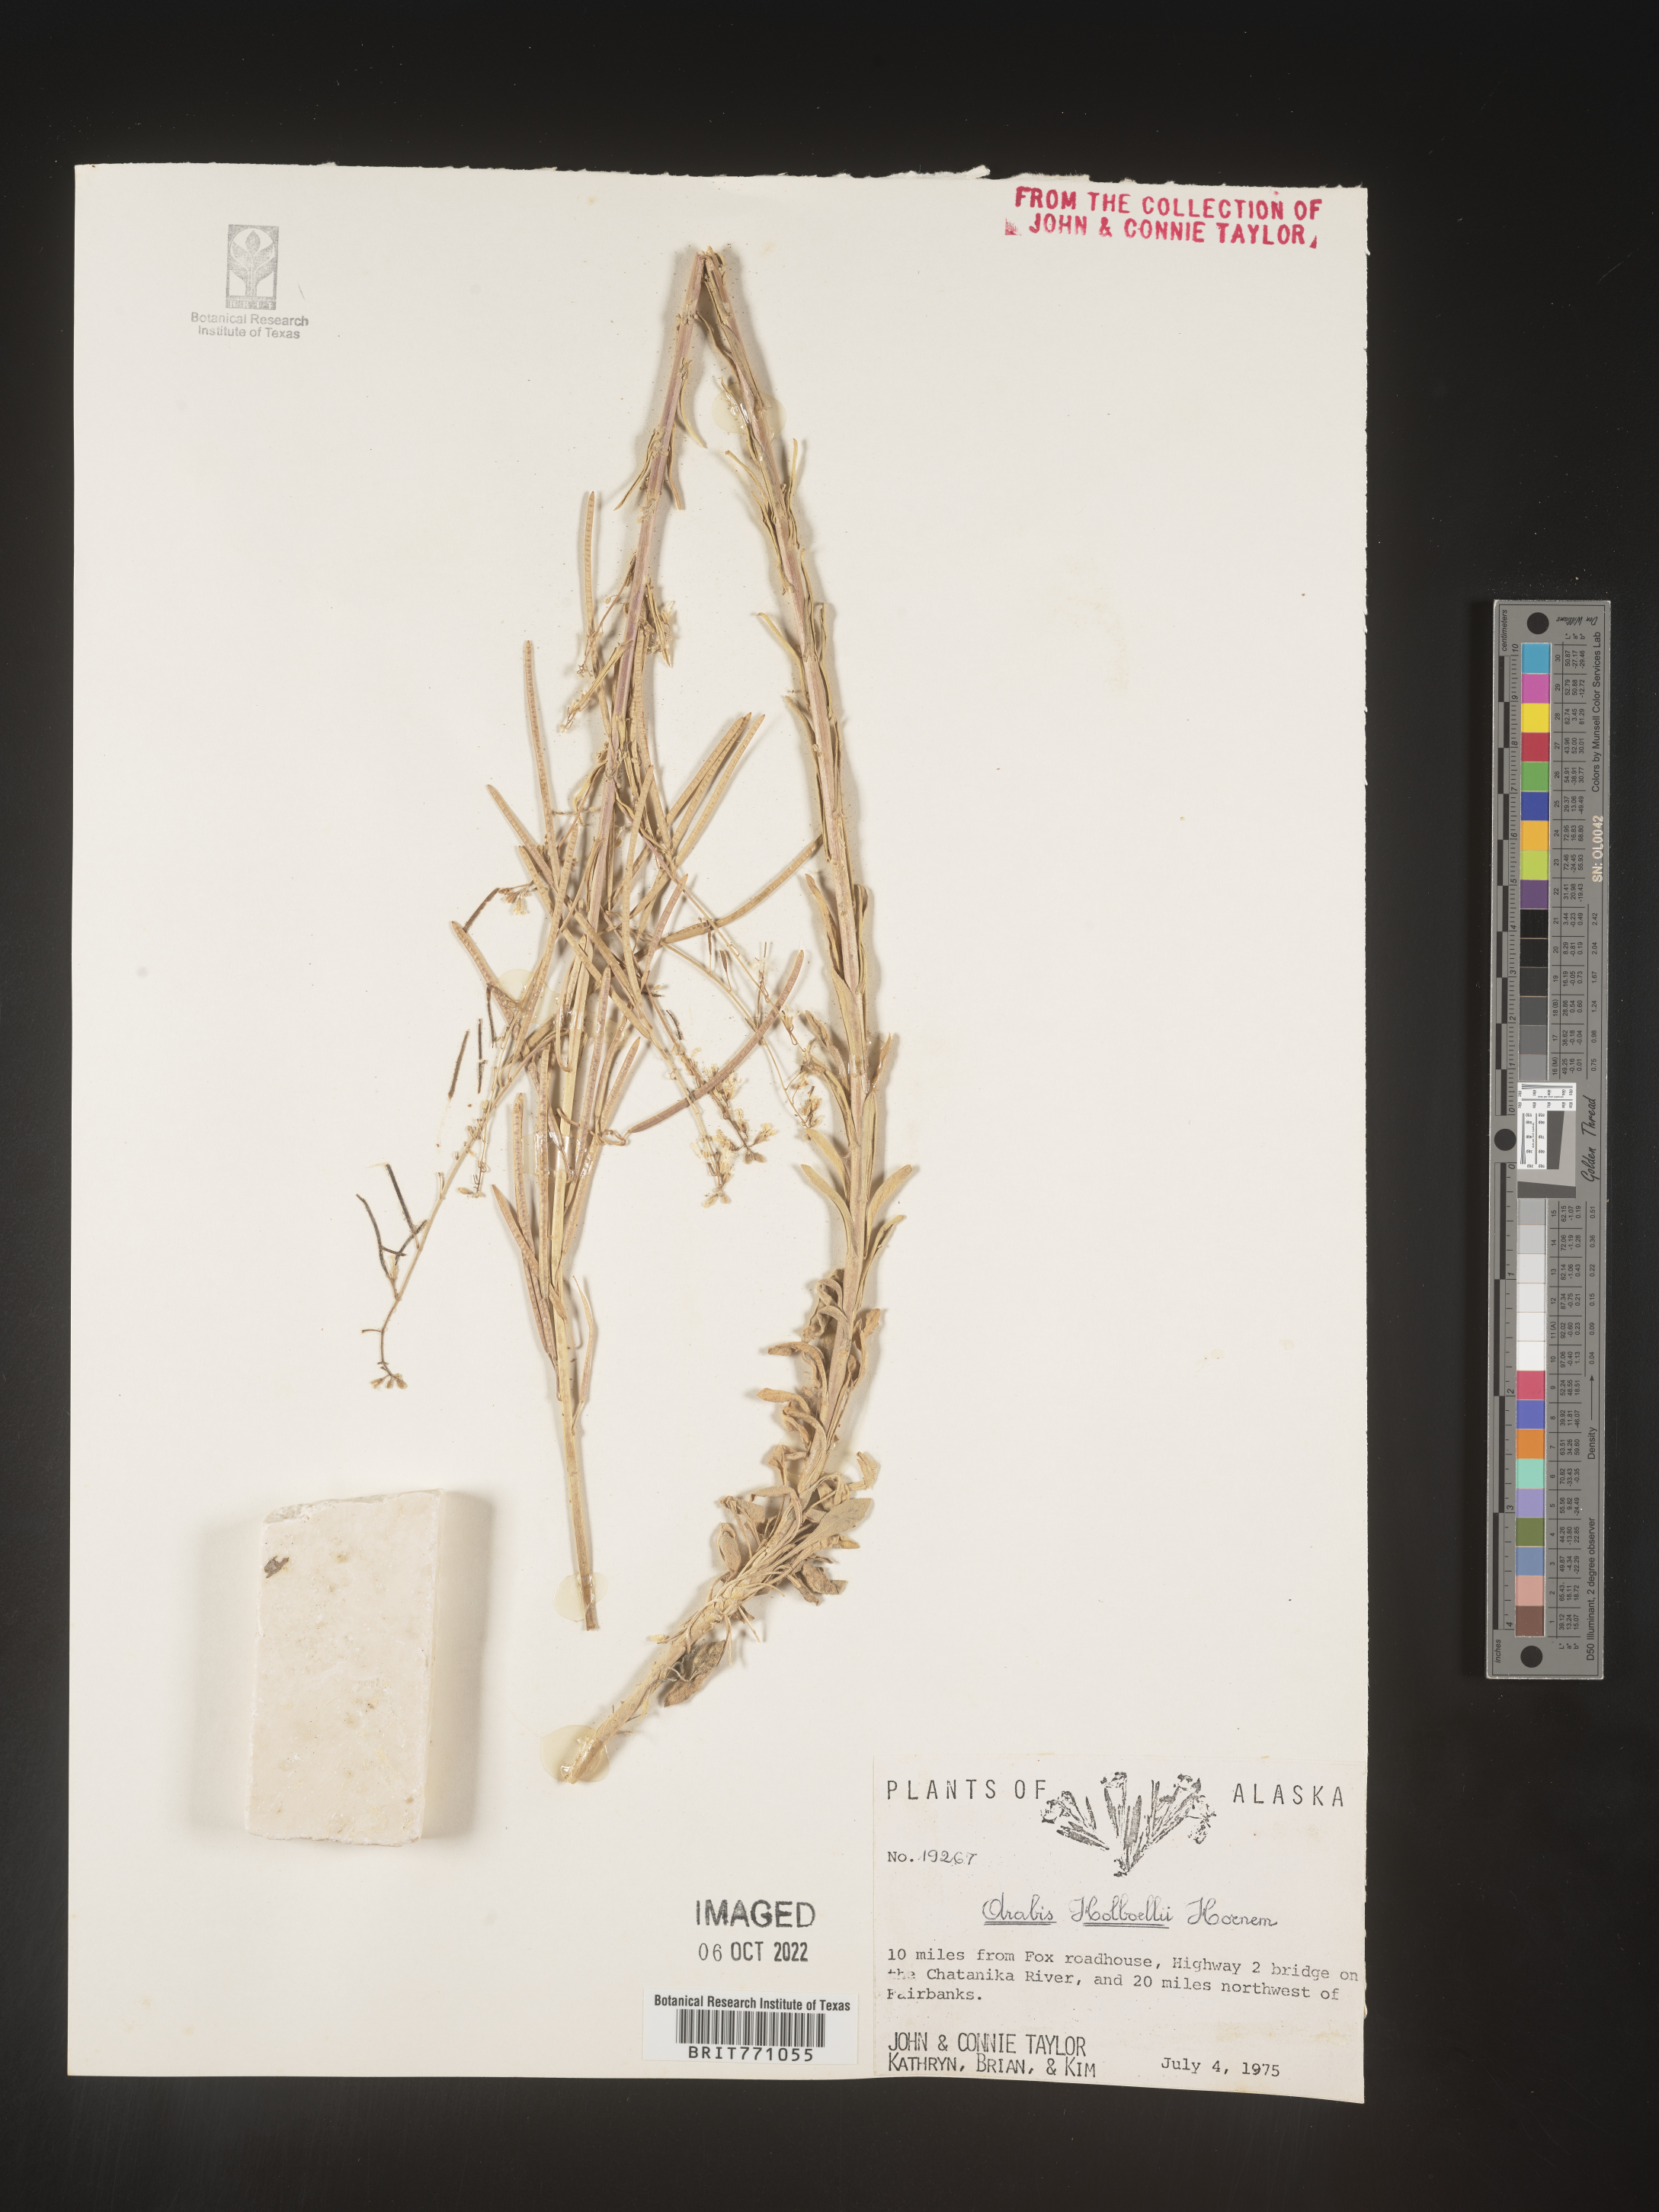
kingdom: Plantae
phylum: Tracheophyta
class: Magnoliopsida
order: Brassicales
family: Brassicaceae
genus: Boechera
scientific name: Boechera holboellii
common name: Holboell's rockcress
